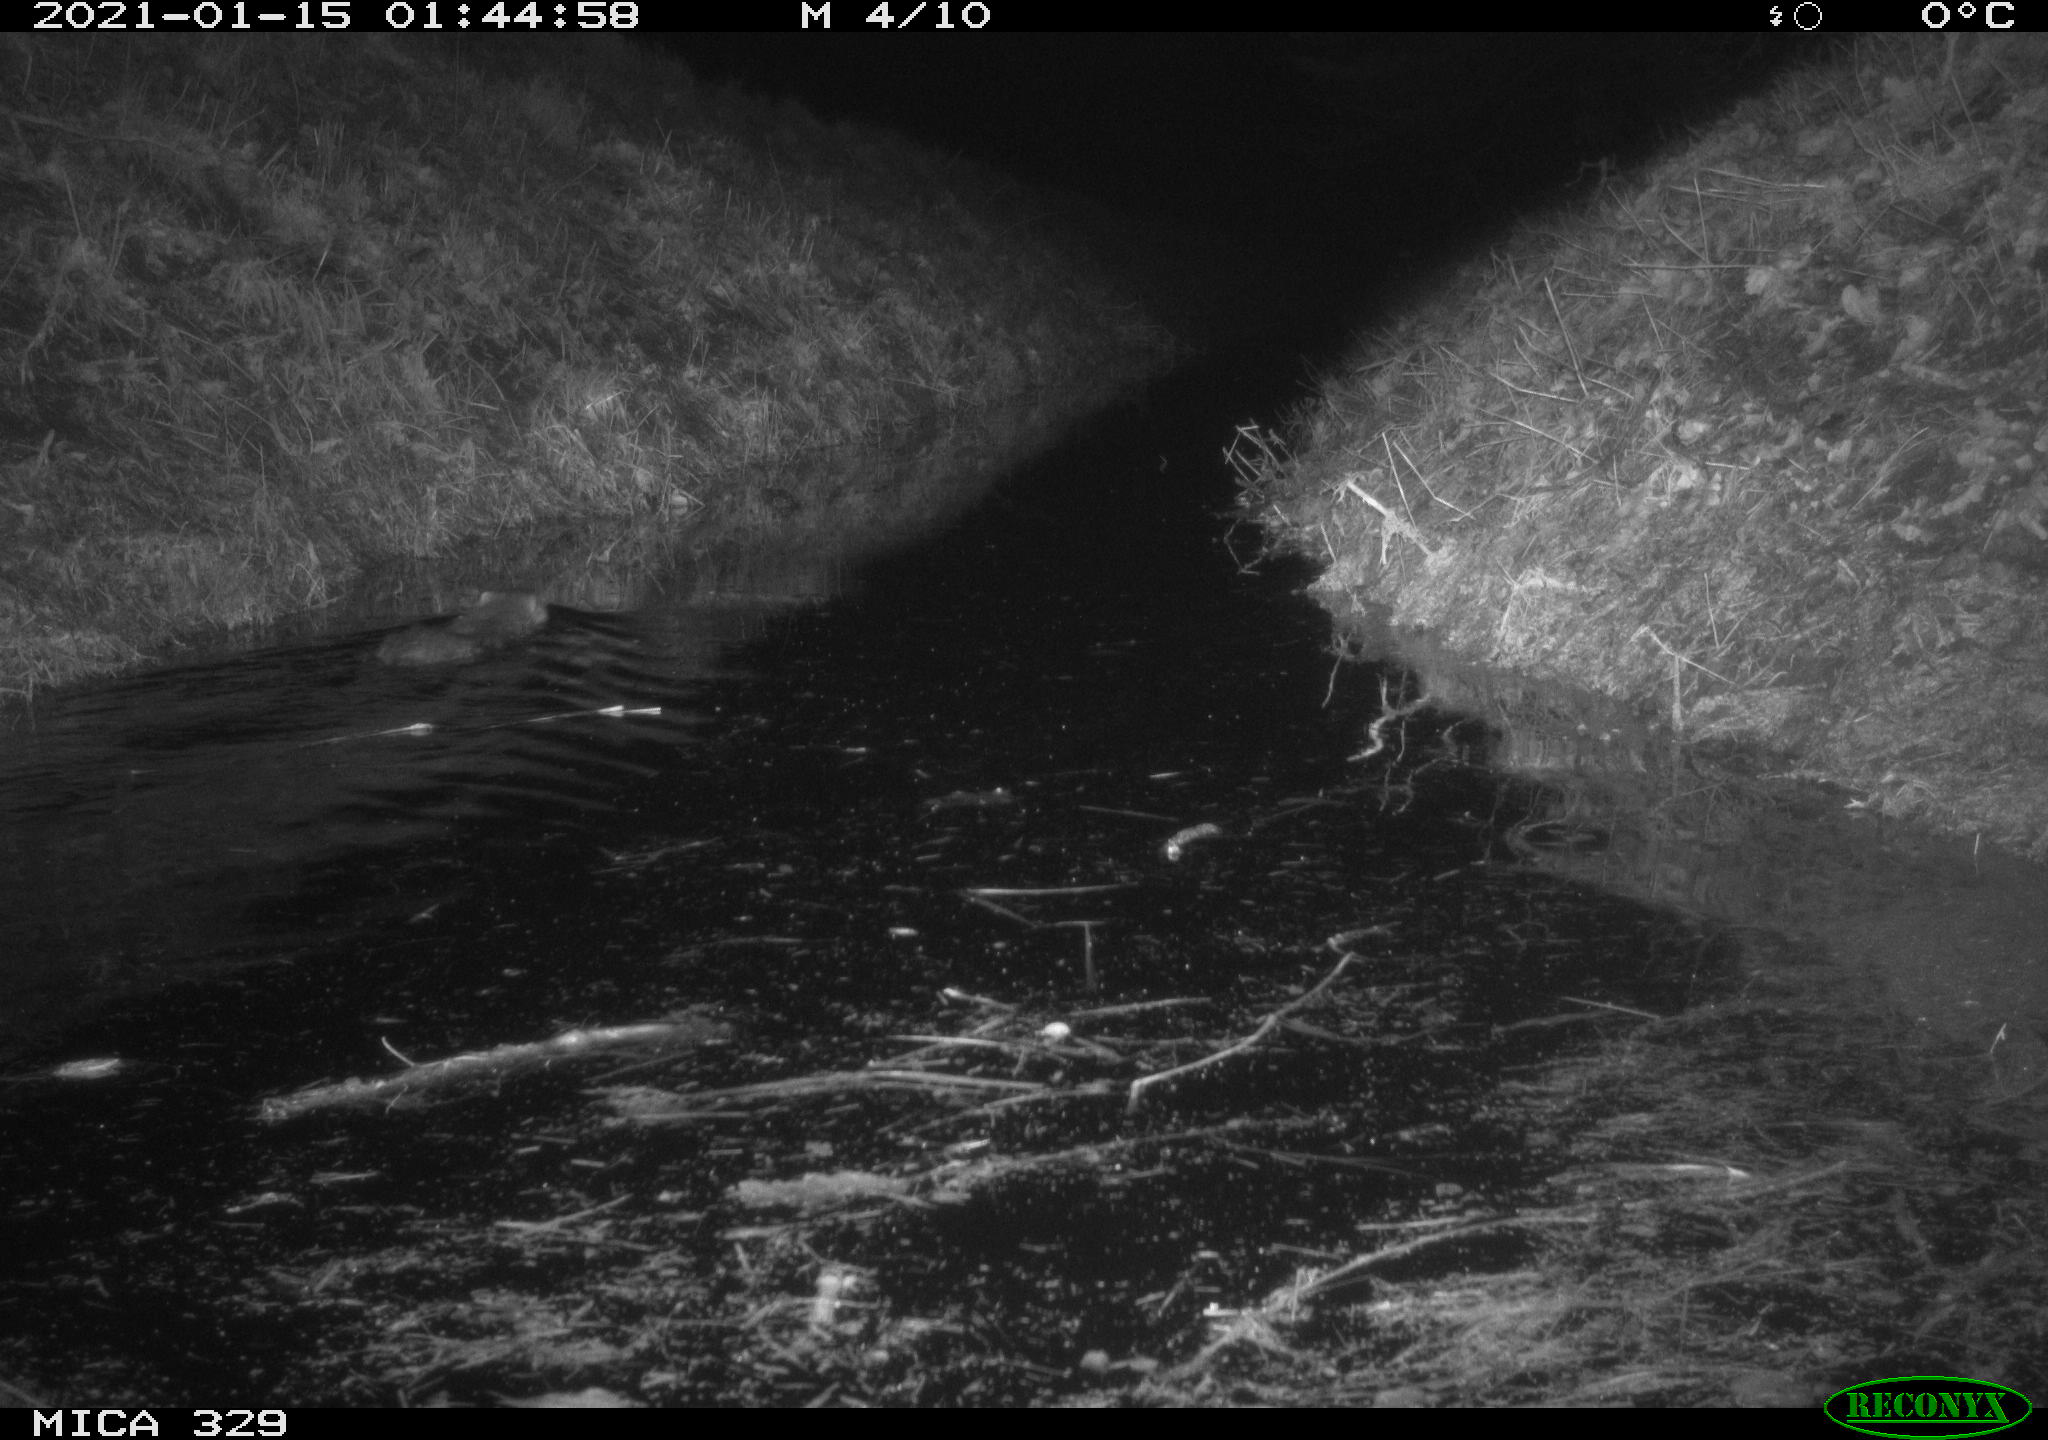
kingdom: Animalia
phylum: Chordata
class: Mammalia
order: Rodentia
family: Myocastoridae
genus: Myocastor
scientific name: Myocastor coypus
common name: Coypu
